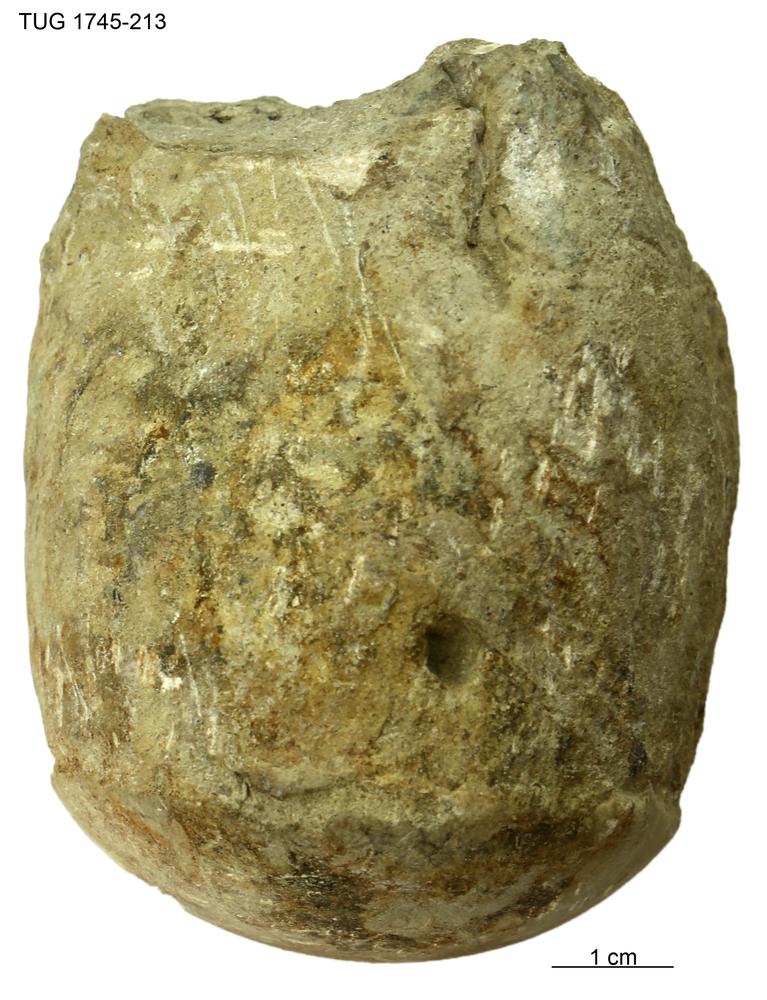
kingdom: Animalia
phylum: Mollusca
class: Cephalopoda
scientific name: Cephalopoda
